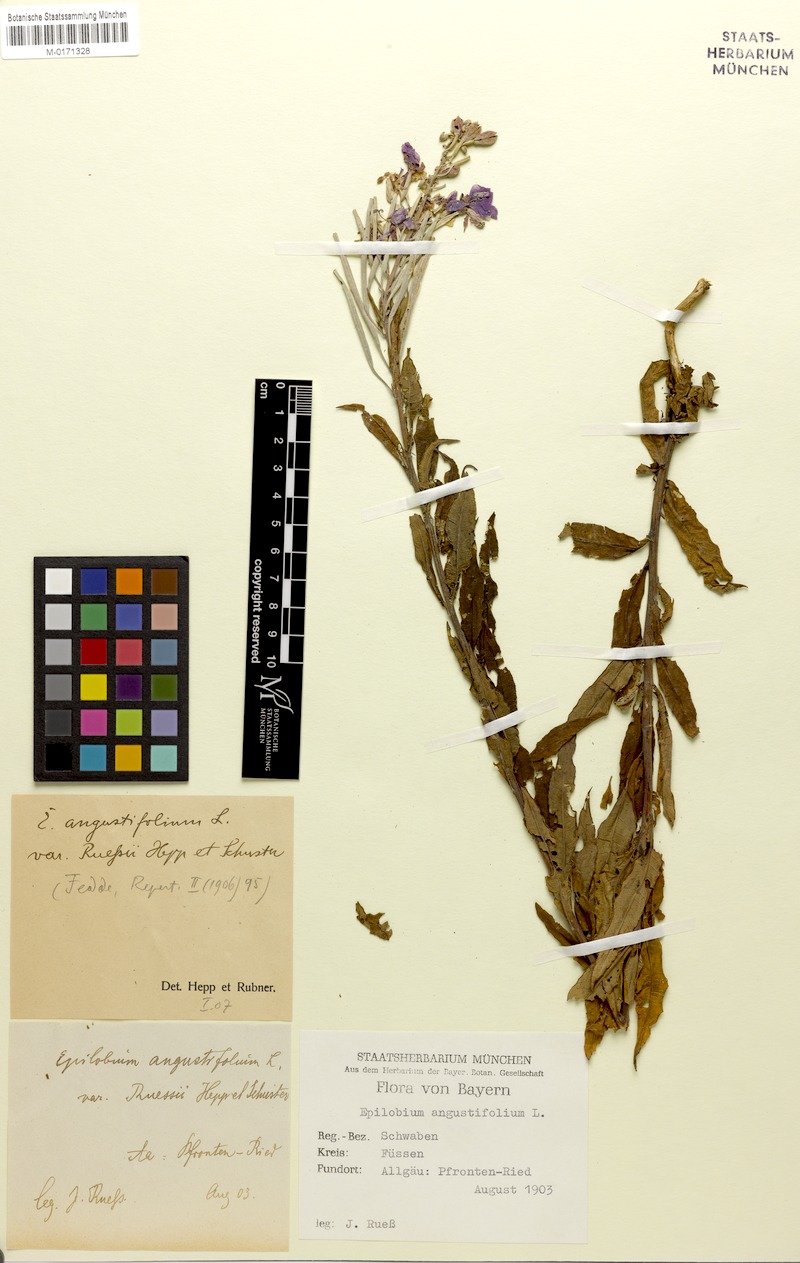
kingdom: Plantae
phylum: Tracheophyta
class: Magnoliopsida
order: Myrtales
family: Onagraceae
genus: Chamaenerion
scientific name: Chamaenerion
